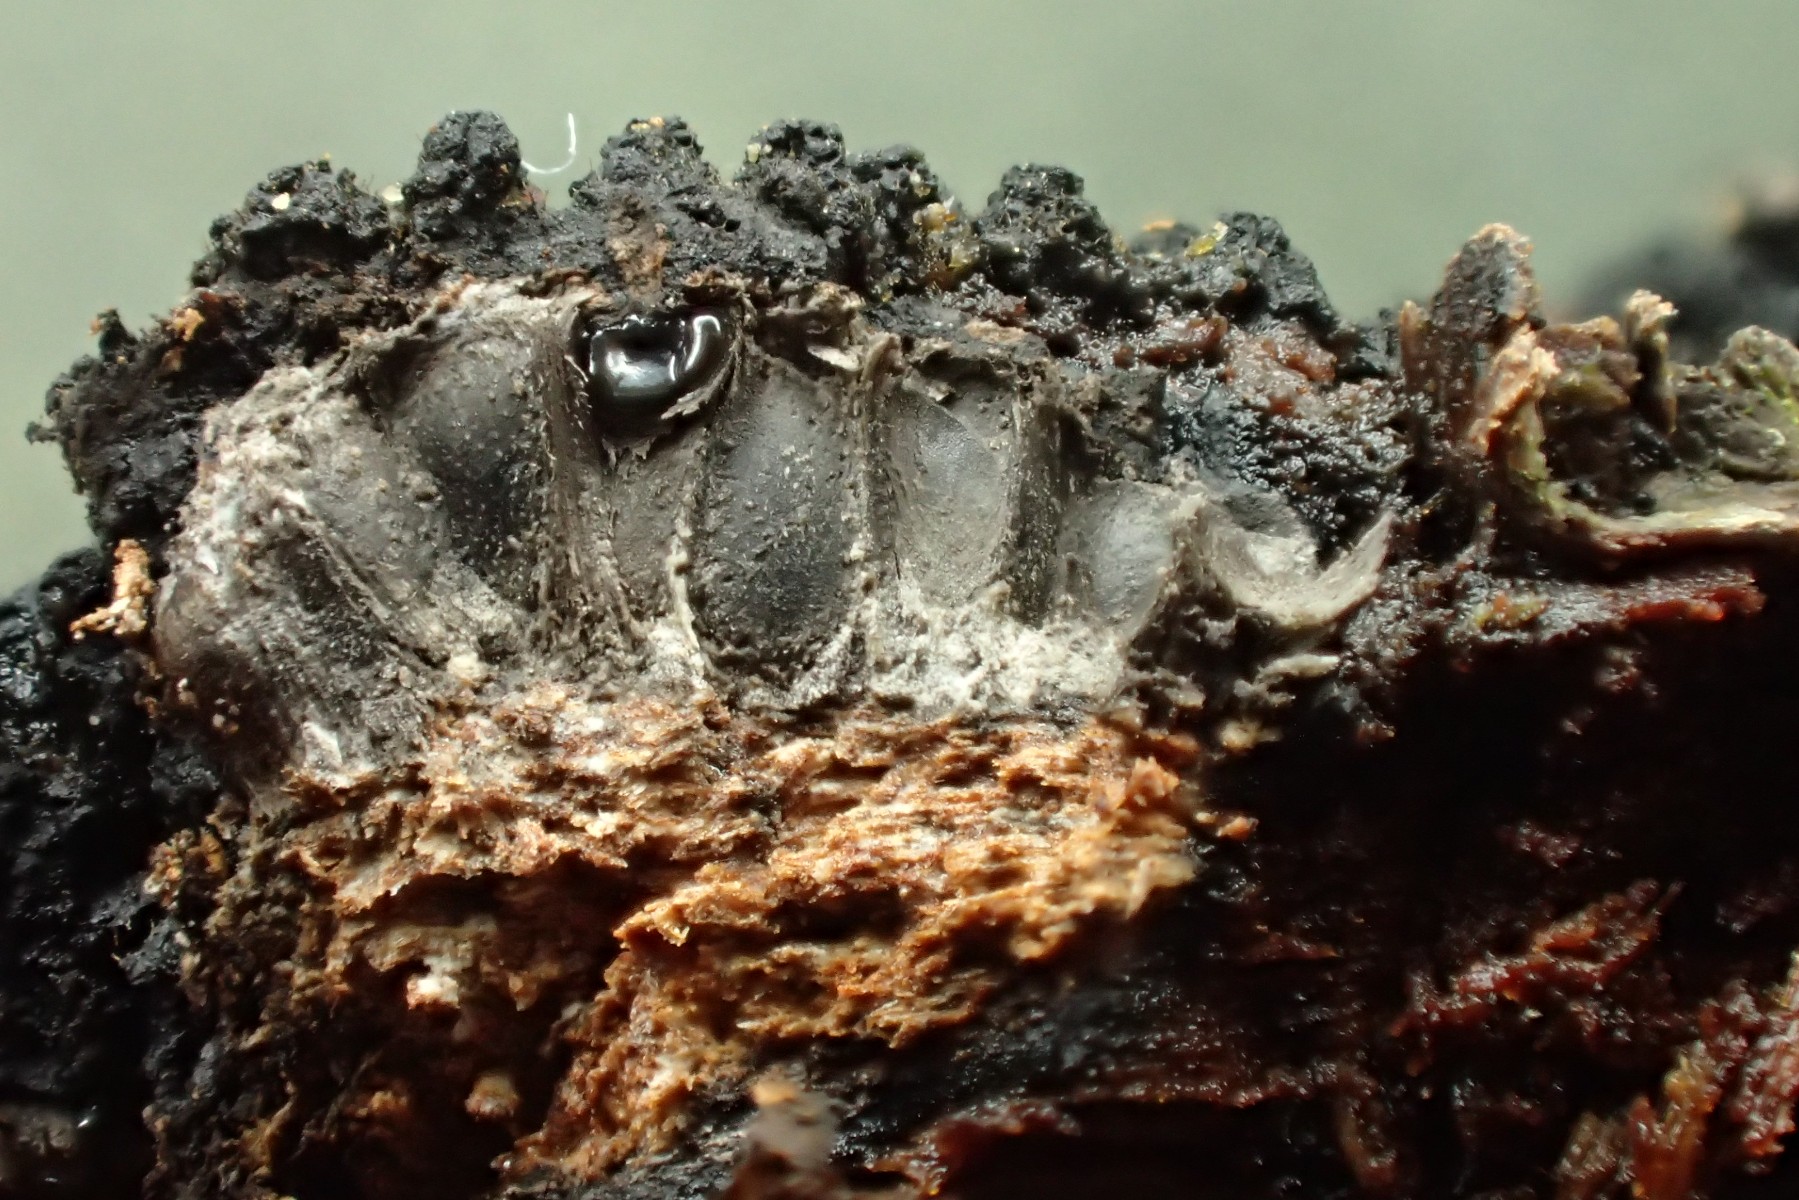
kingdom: Fungi
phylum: Ascomycota
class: Sordariomycetes
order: Xylariales
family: Diatrypaceae
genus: Eutypa
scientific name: Eutypa spinosa
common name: grov kulskorpe
